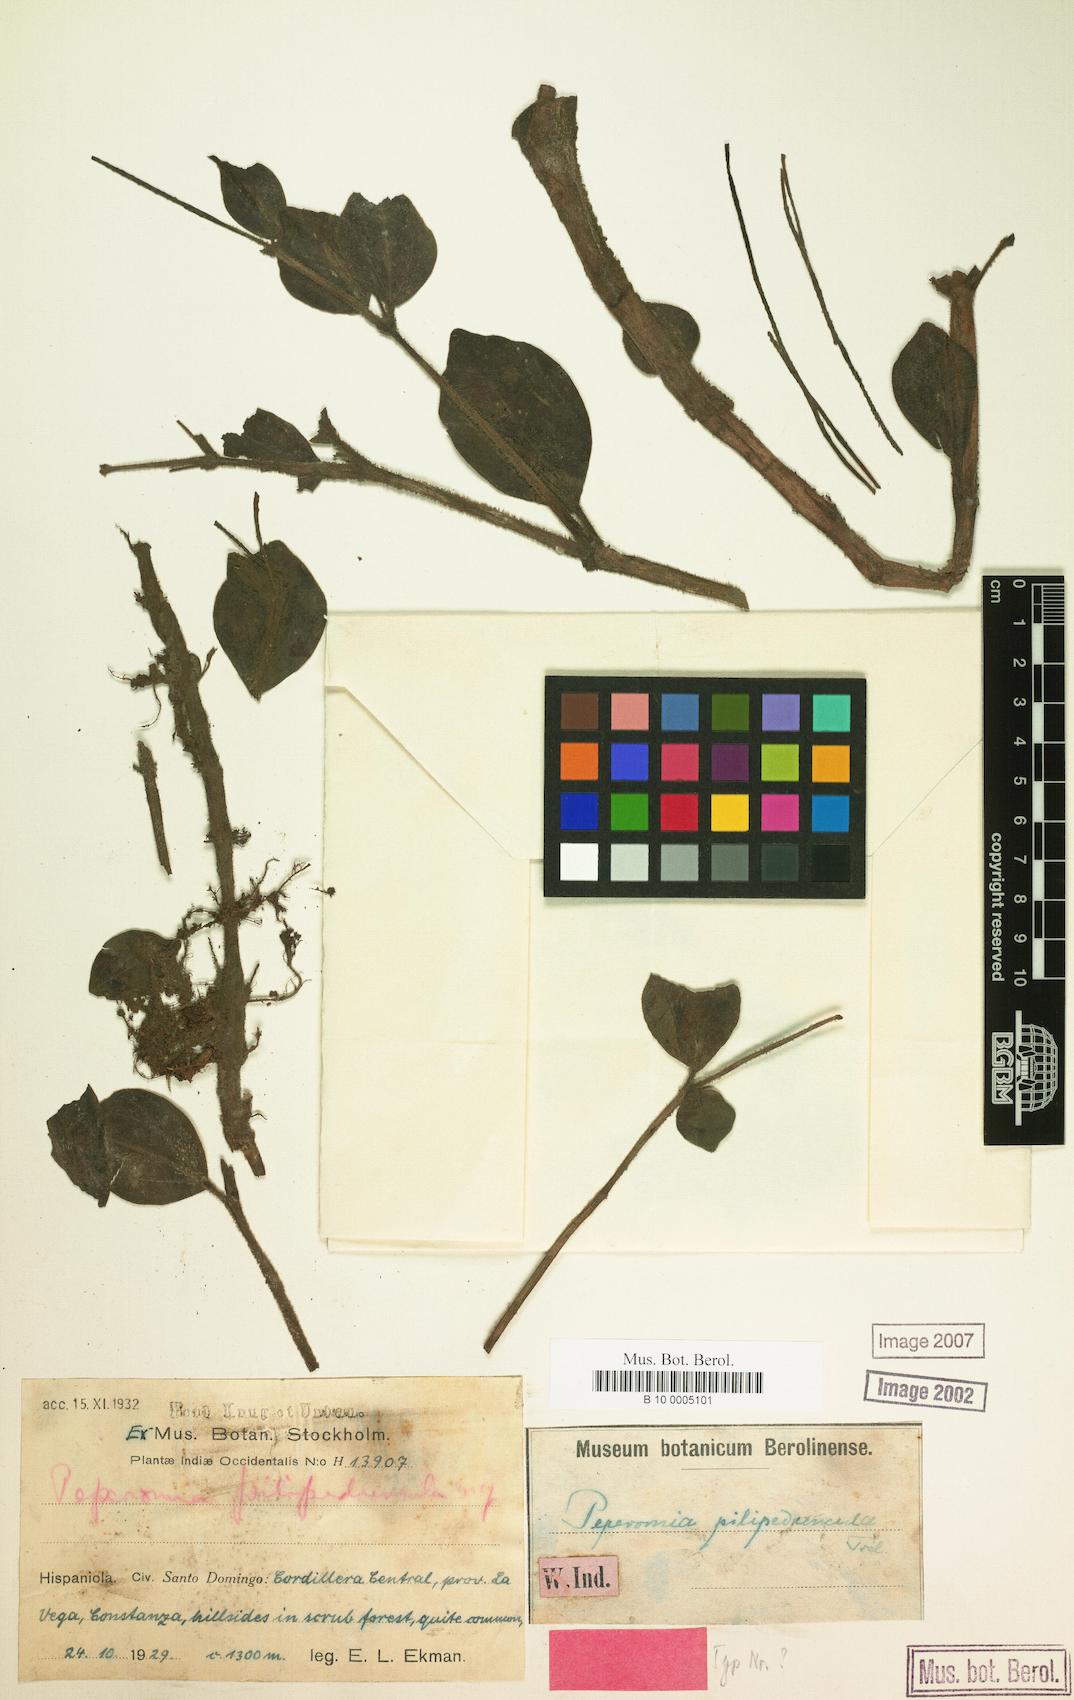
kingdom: Plantae
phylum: Tracheophyta
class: Magnoliopsida
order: Piperales
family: Piperaceae
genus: Peperomia
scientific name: Peperomia humilis
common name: Polynesian peperomia
